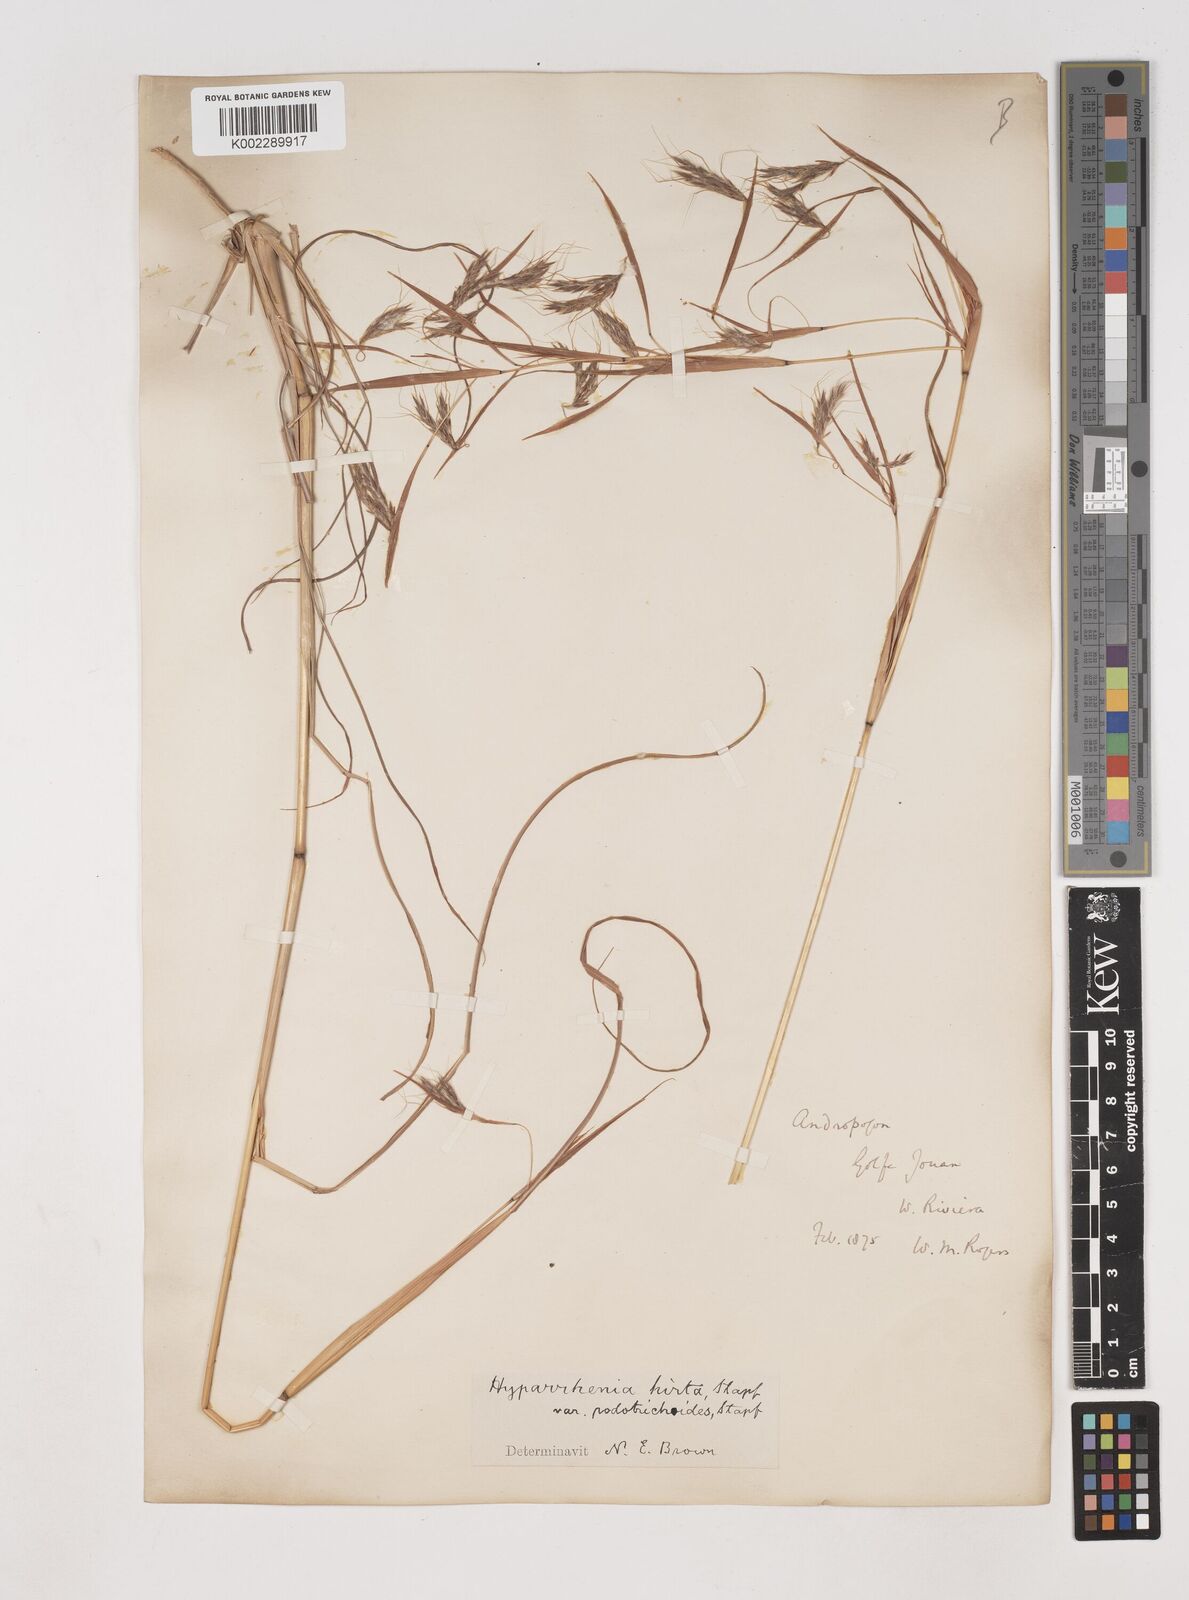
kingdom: Plantae
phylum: Tracheophyta
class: Liliopsida
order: Poales
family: Poaceae
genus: Hyparrhenia
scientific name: Hyparrhenia hirta
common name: Thatching grass
